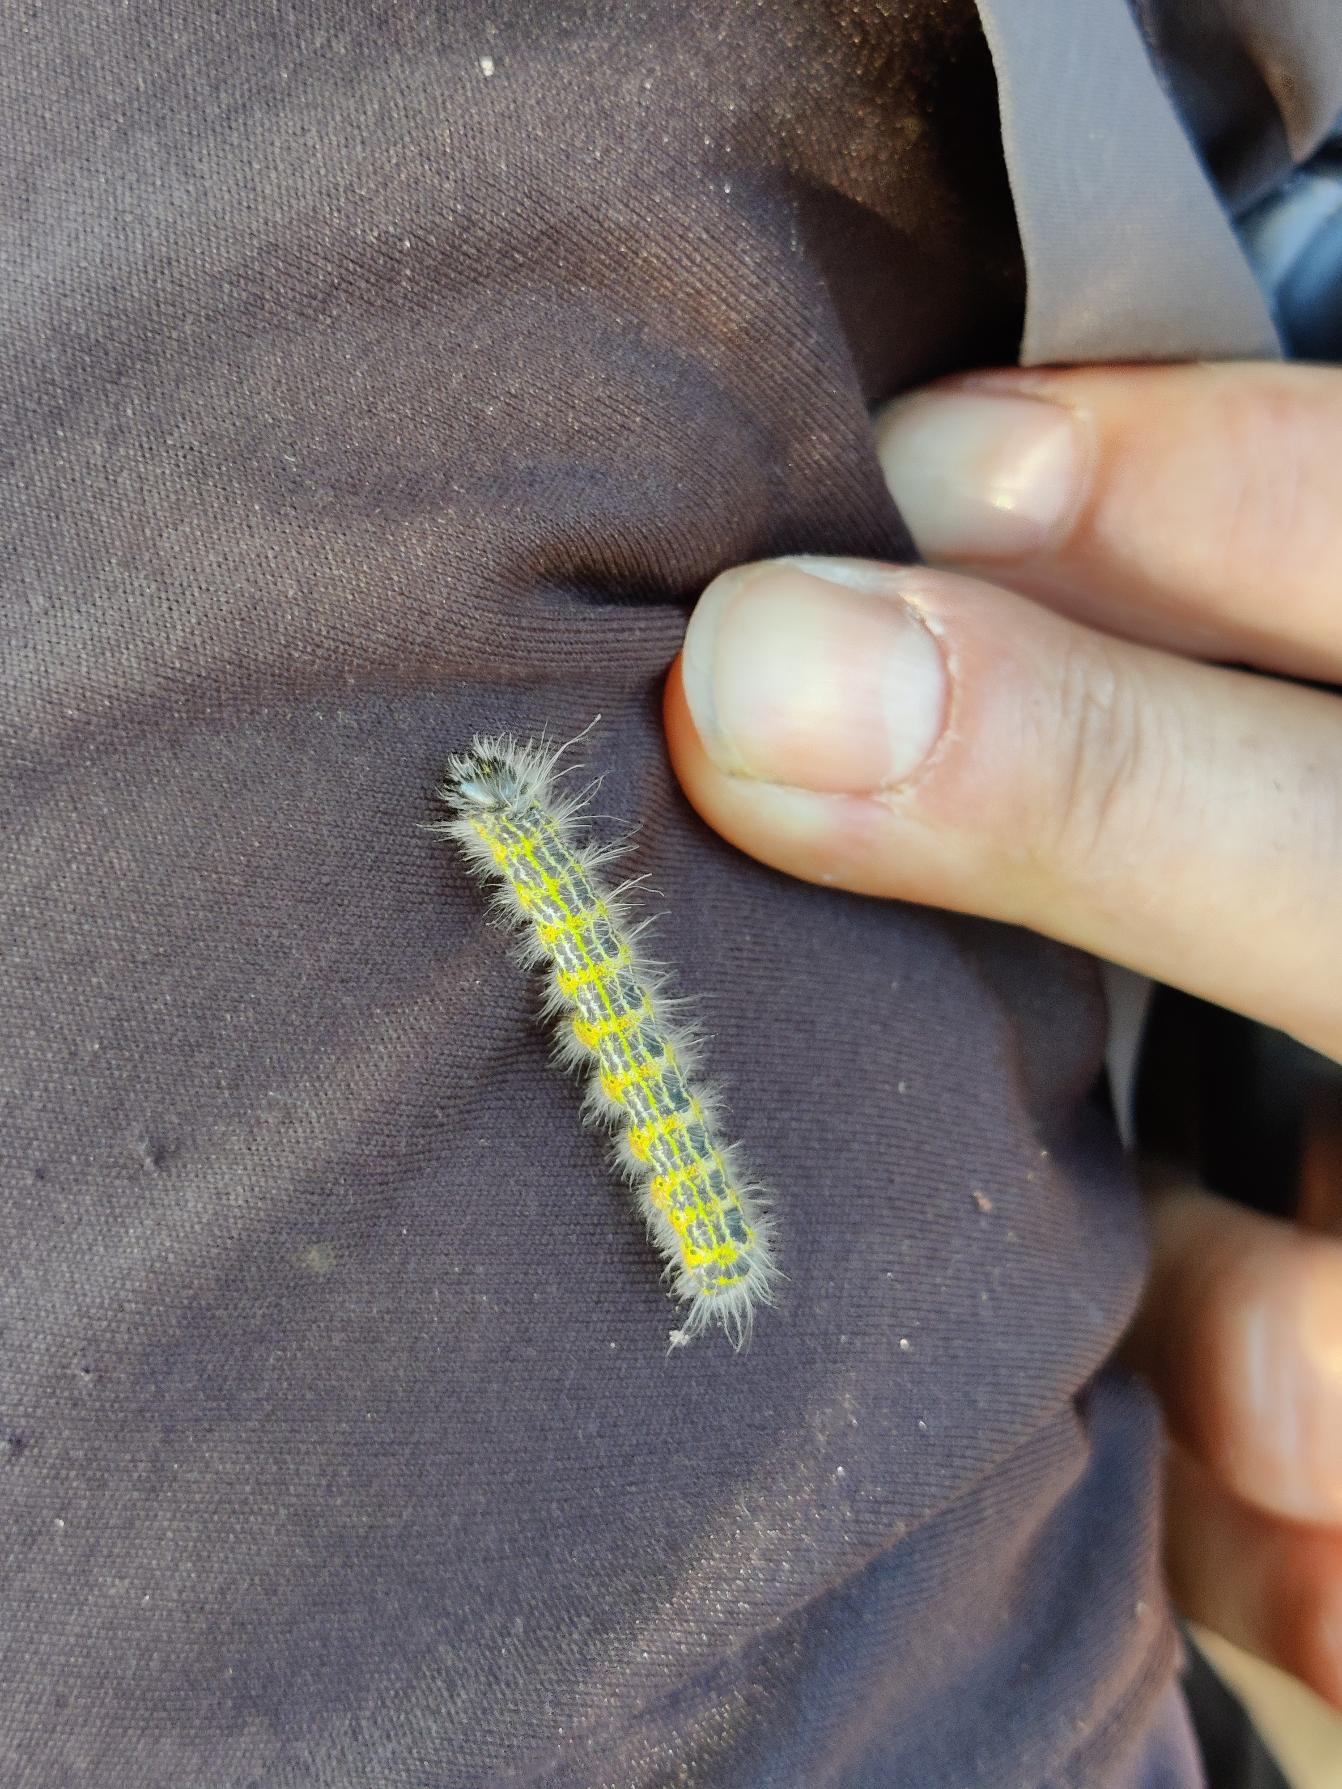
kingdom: Animalia
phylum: Arthropoda
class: Insecta
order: Lepidoptera
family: Notodontidae
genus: Phalera
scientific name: Phalera bucephala
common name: Måneplet
